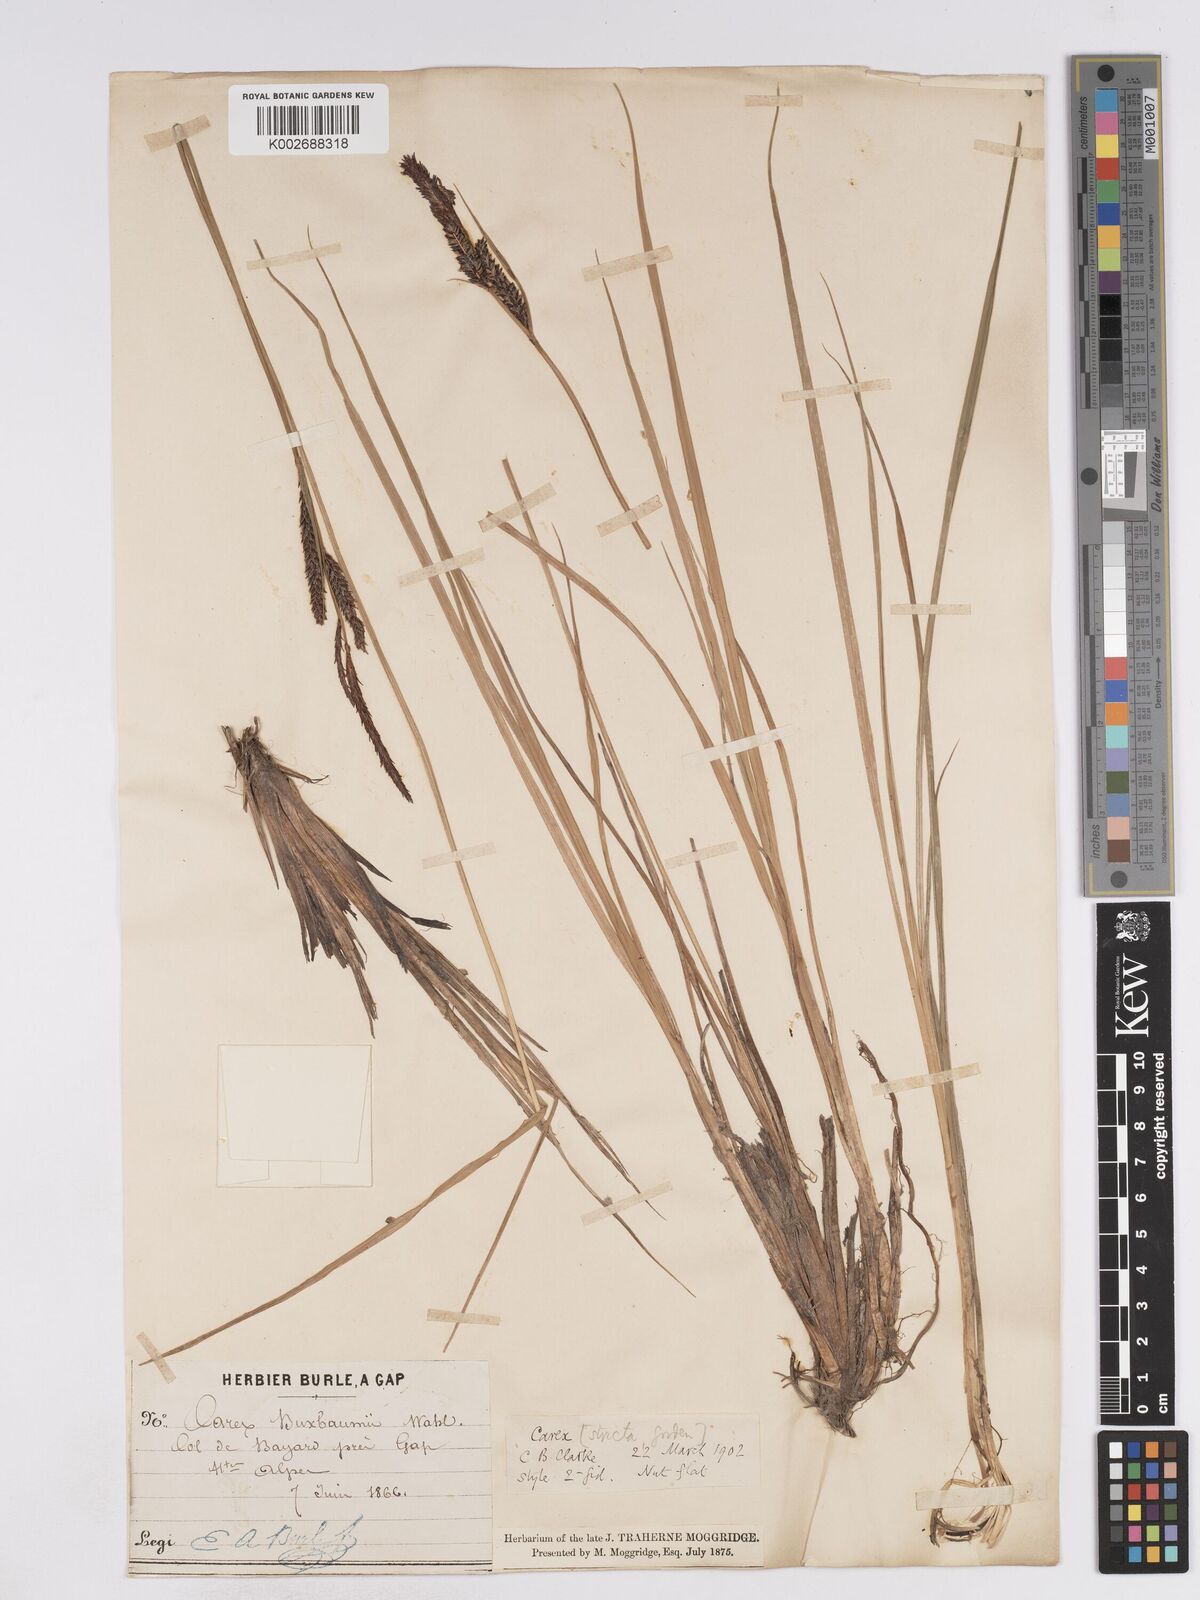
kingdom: Plantae
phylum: Tracheophyta
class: Liliopsida
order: Poales
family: Cyperaceae
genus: Carex
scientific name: Carex elata
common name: Tufted sedge
